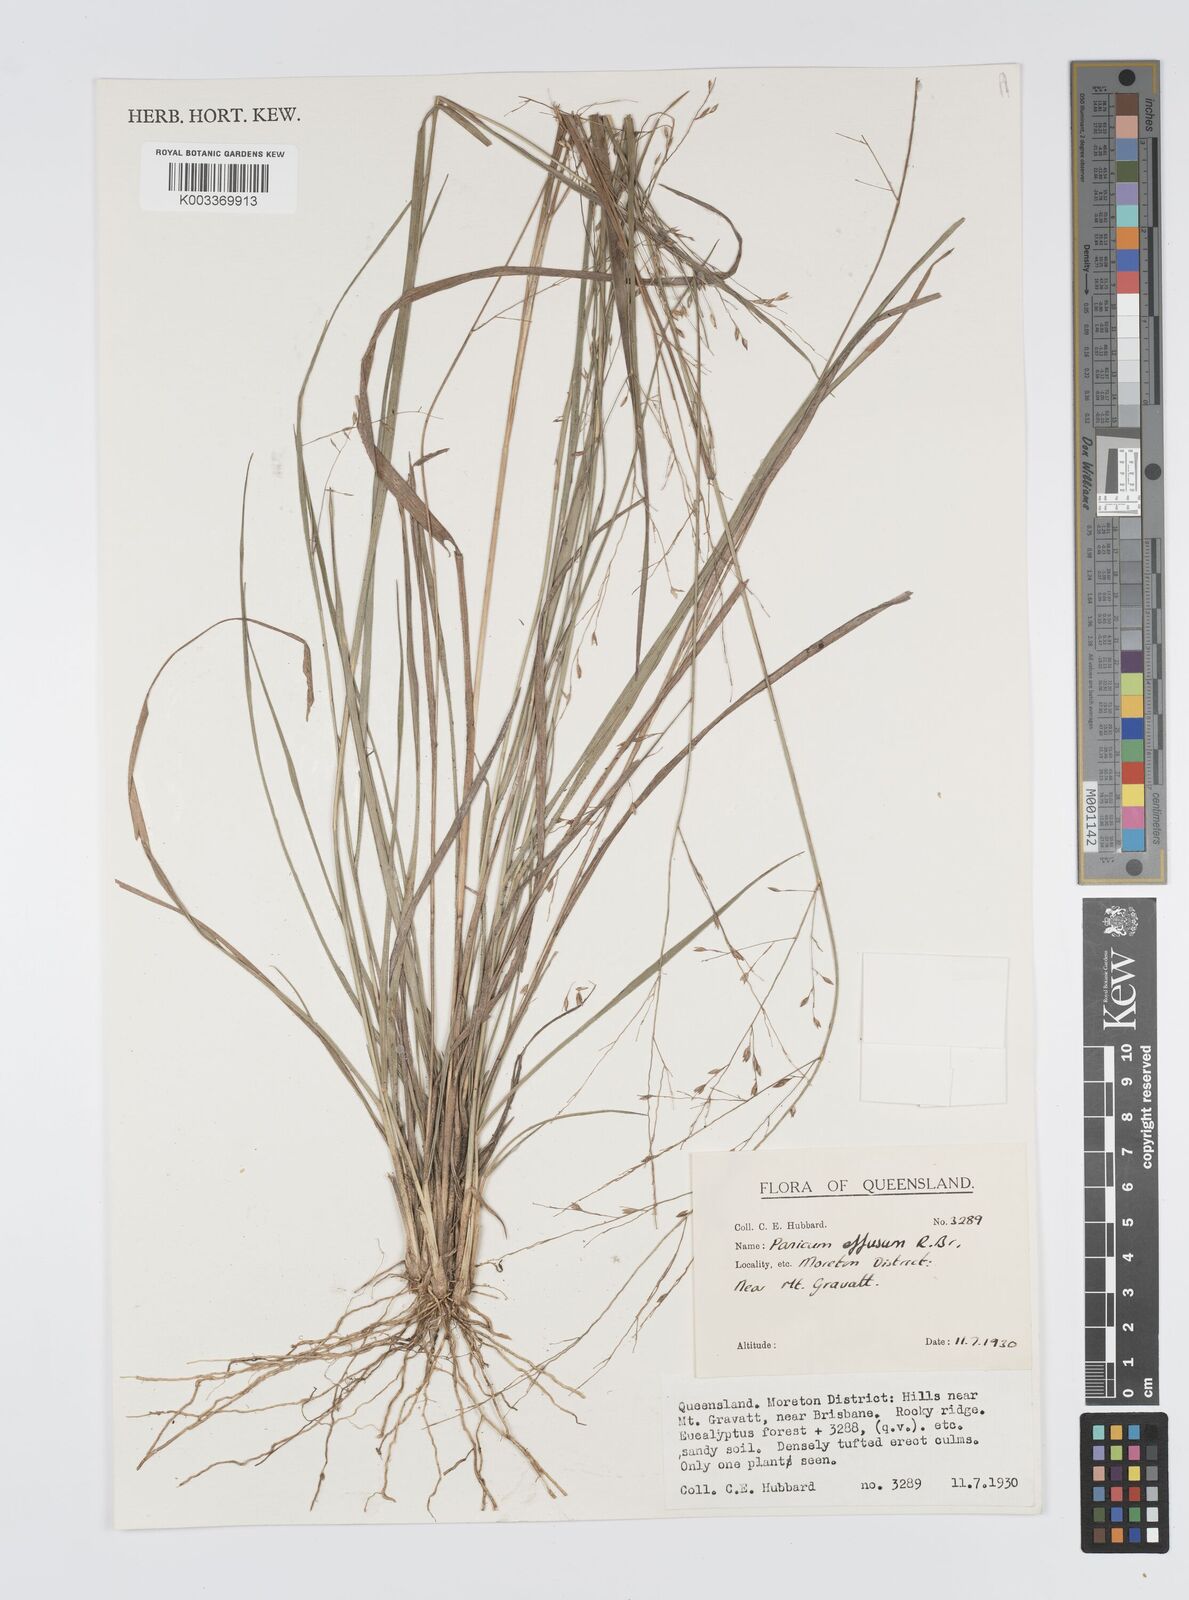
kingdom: Plantae
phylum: Tracheophyta
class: Liliopsida
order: Poales
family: Poaceae
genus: Panicum
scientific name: Panicum effusum
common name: Hairy panic grass
